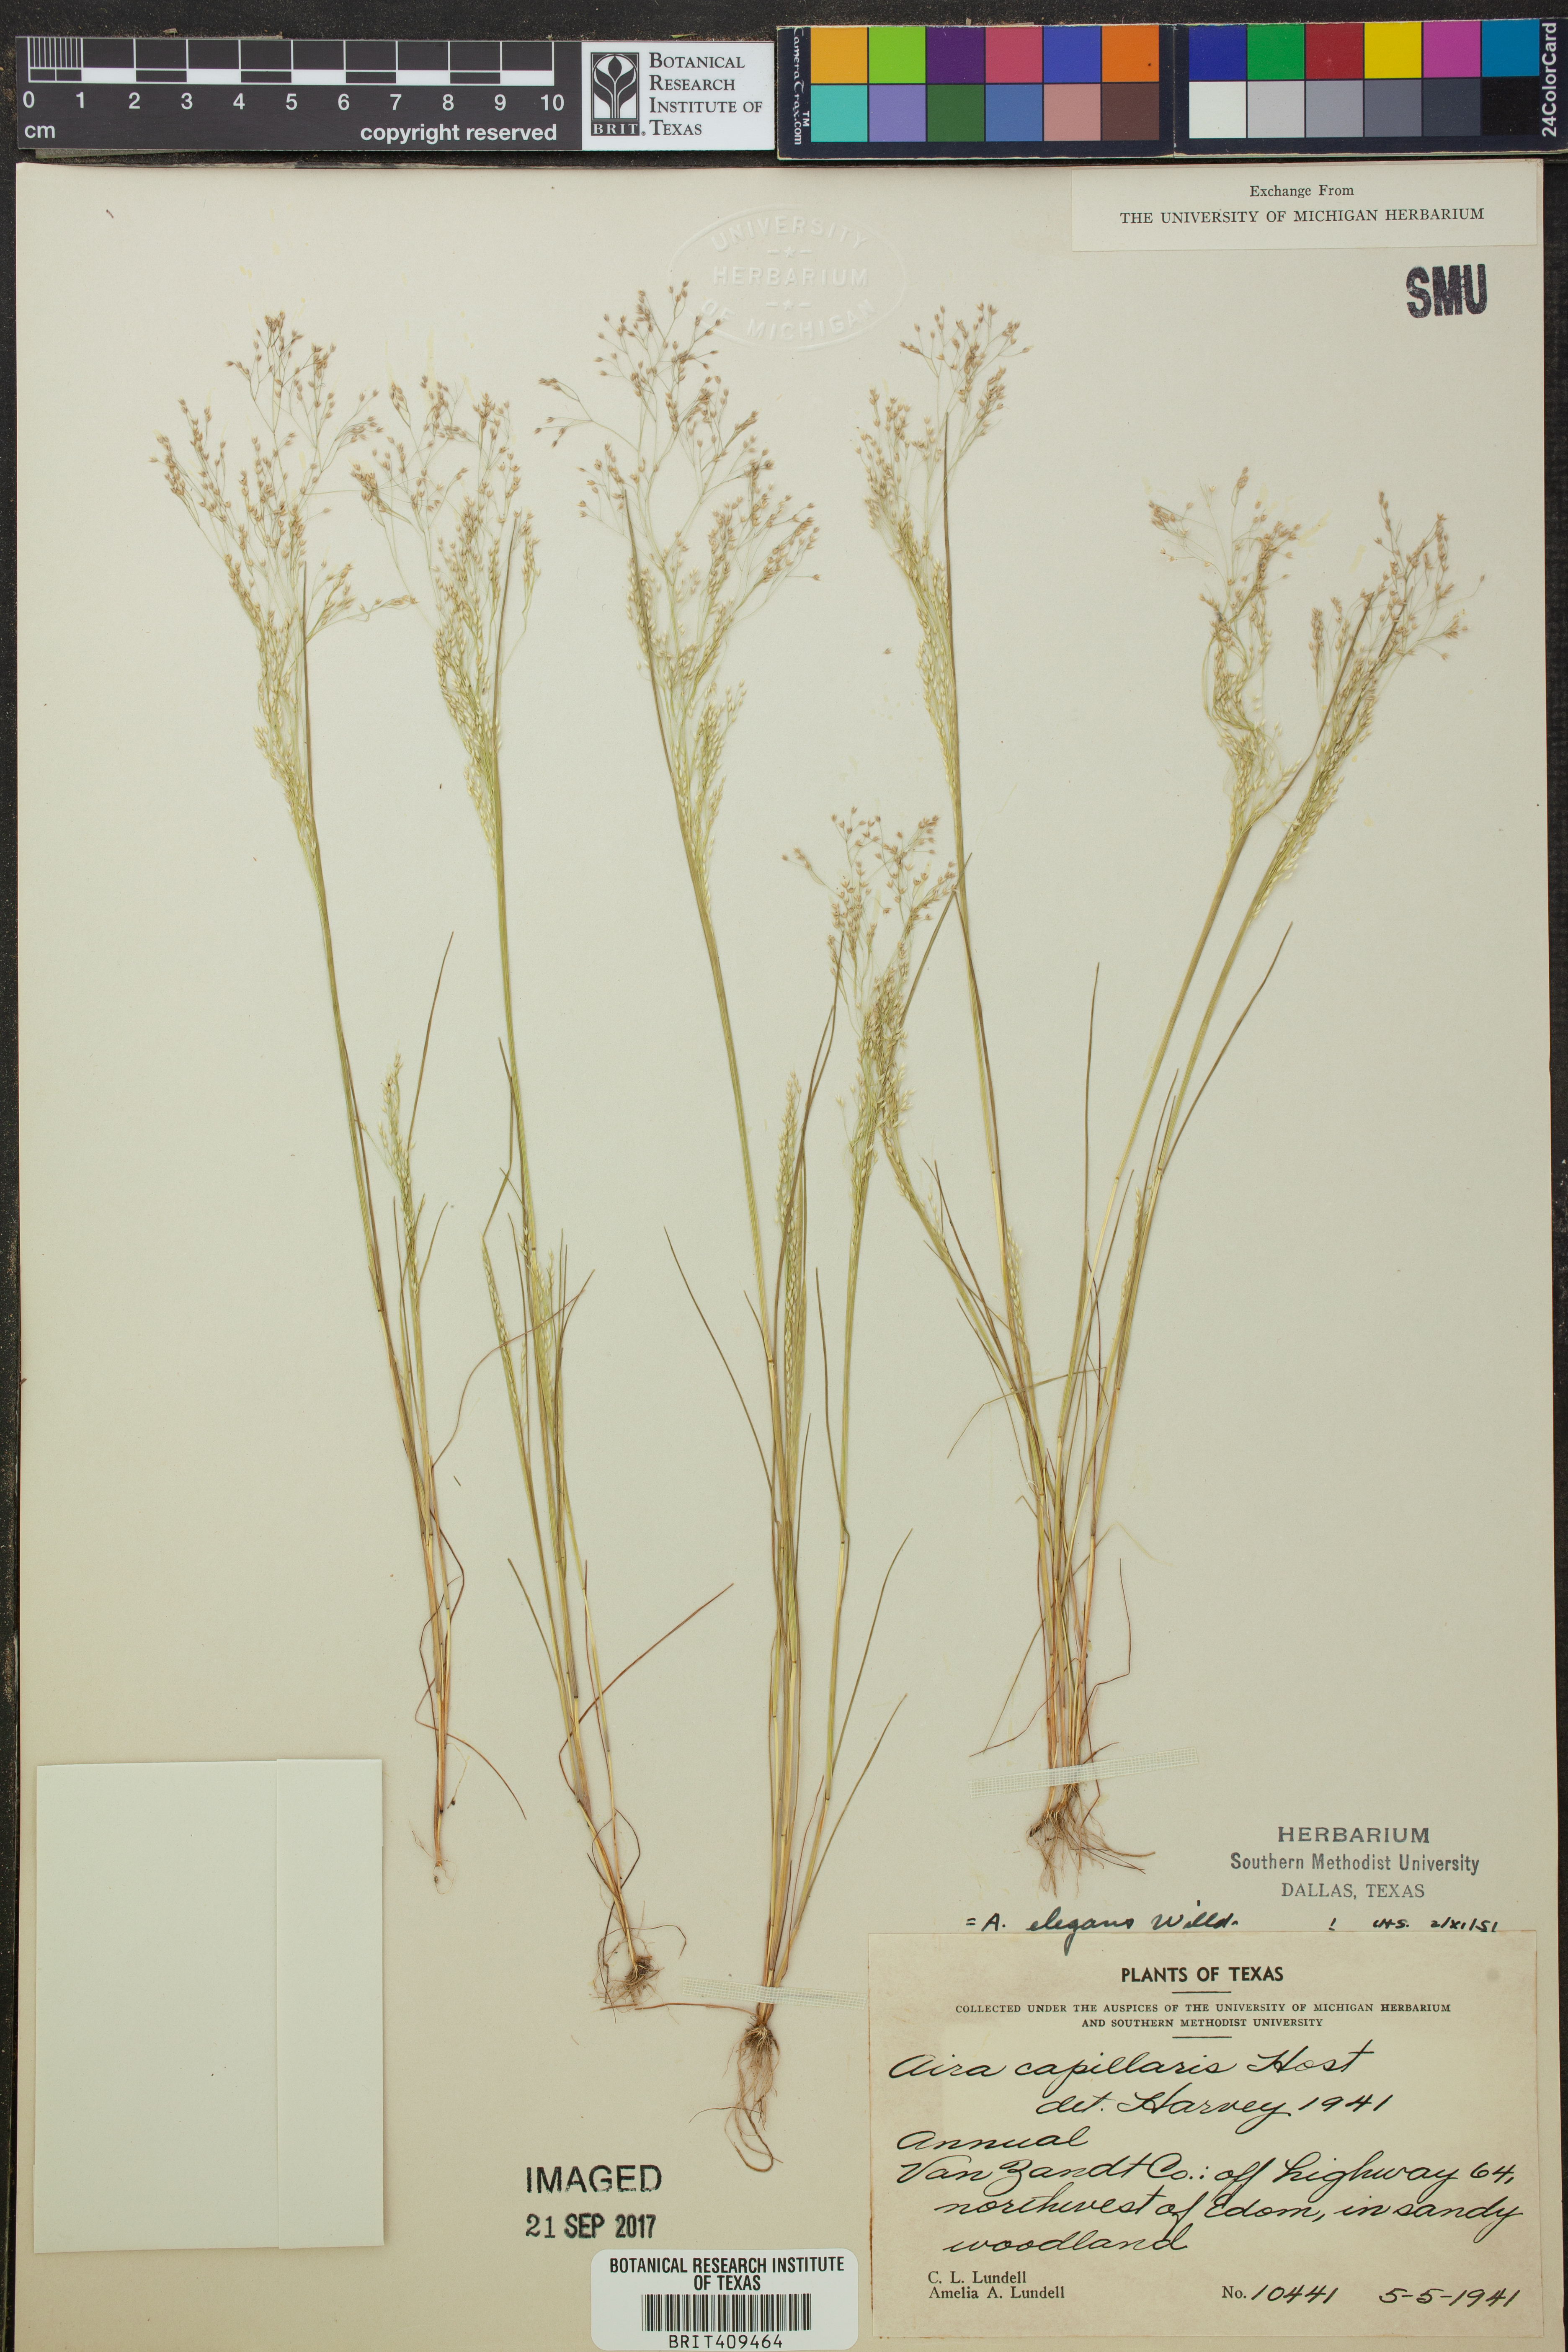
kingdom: Plantae
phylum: Tracheophyta
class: Liliopsida
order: Poales
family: Poaceae
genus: Aira
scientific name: Aira elegans
